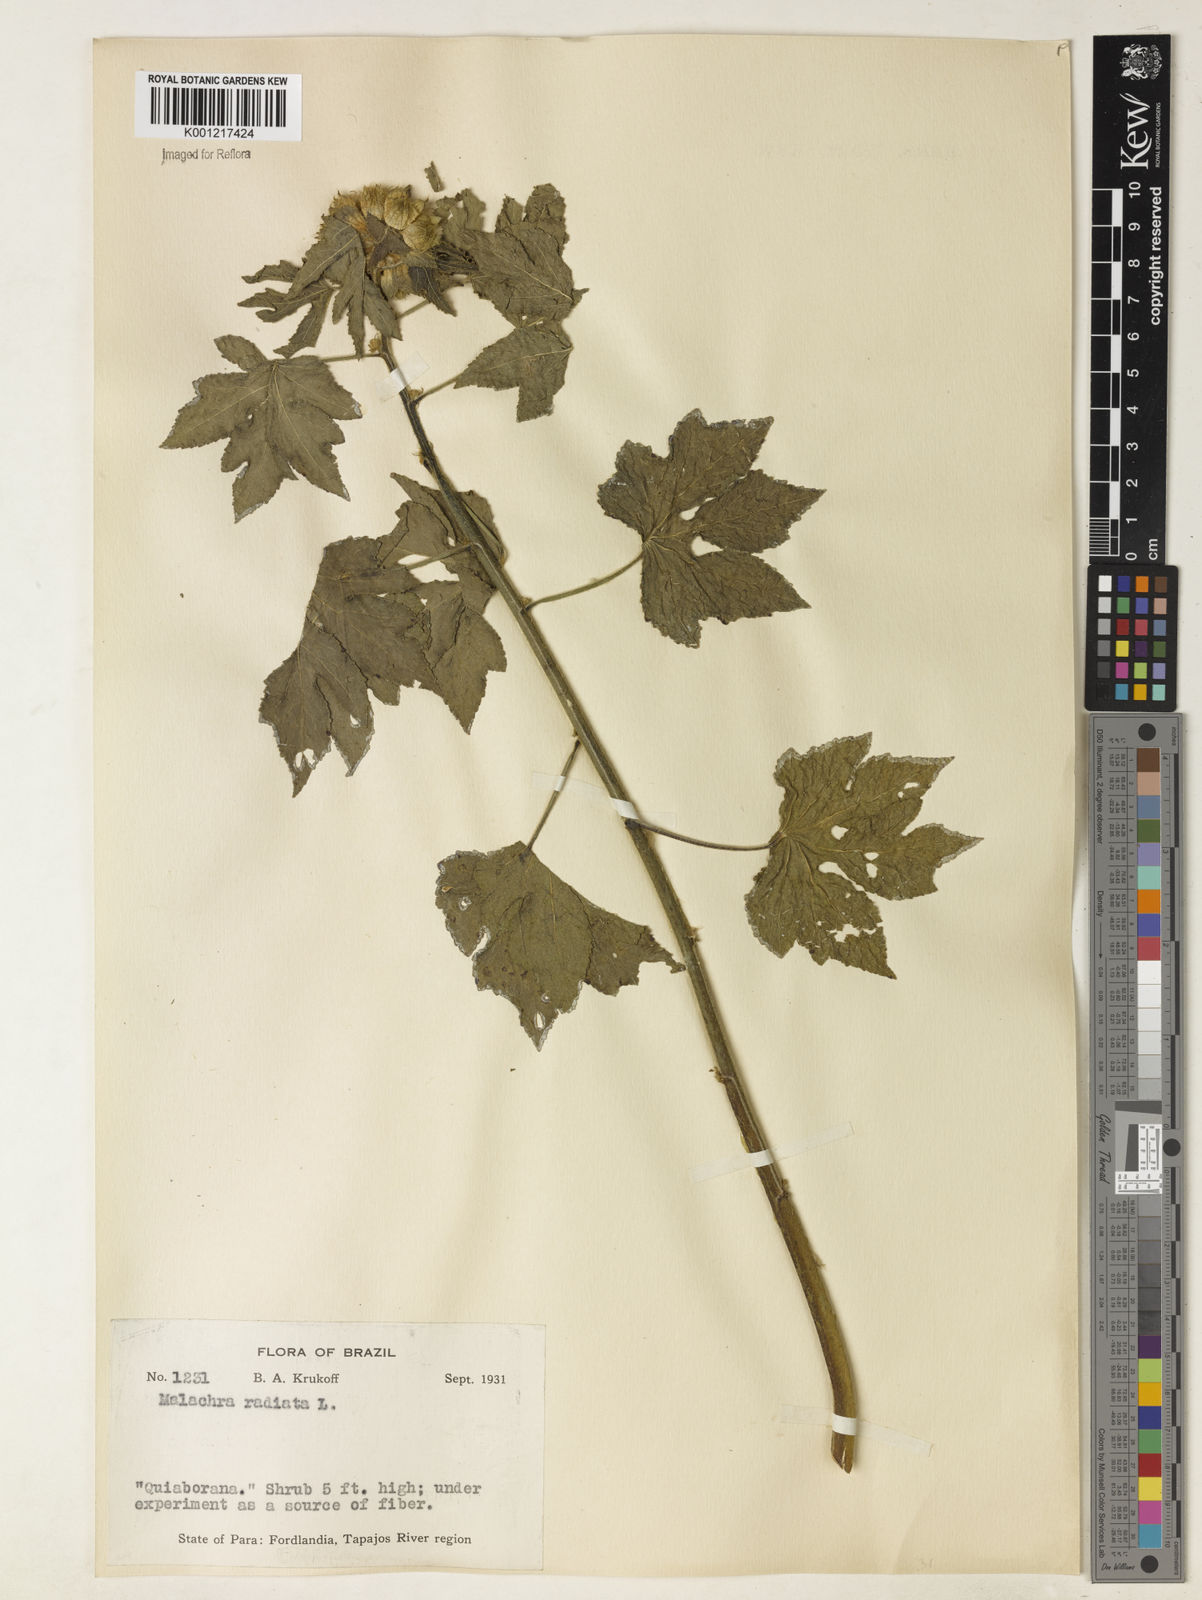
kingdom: Plantae
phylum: Tracheophyta
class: Magnoliopsida
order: Malvales
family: Malvaceae
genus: Malachra
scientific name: Malachra radiata
